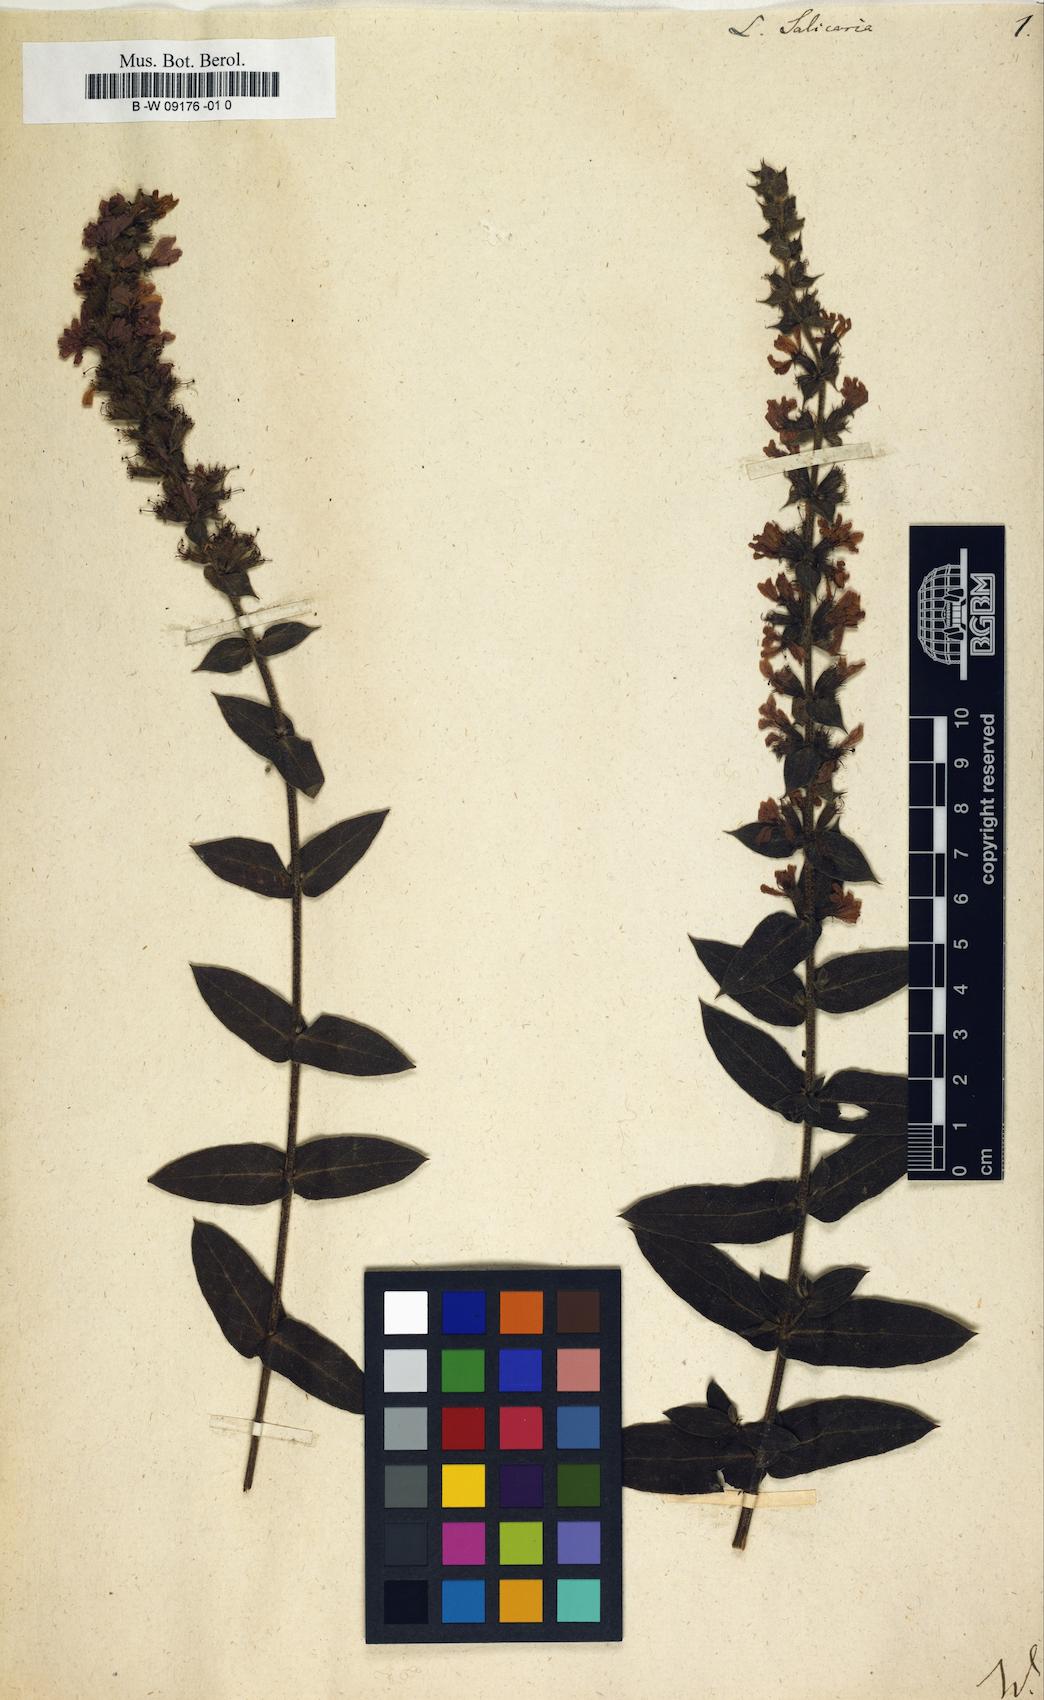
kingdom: Plantae
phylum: Tracheophyta
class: Magnoliopsida
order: Myrtales
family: Lythraceae
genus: Lythrum
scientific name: Lythrum salicaria
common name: Purple loosestrife
